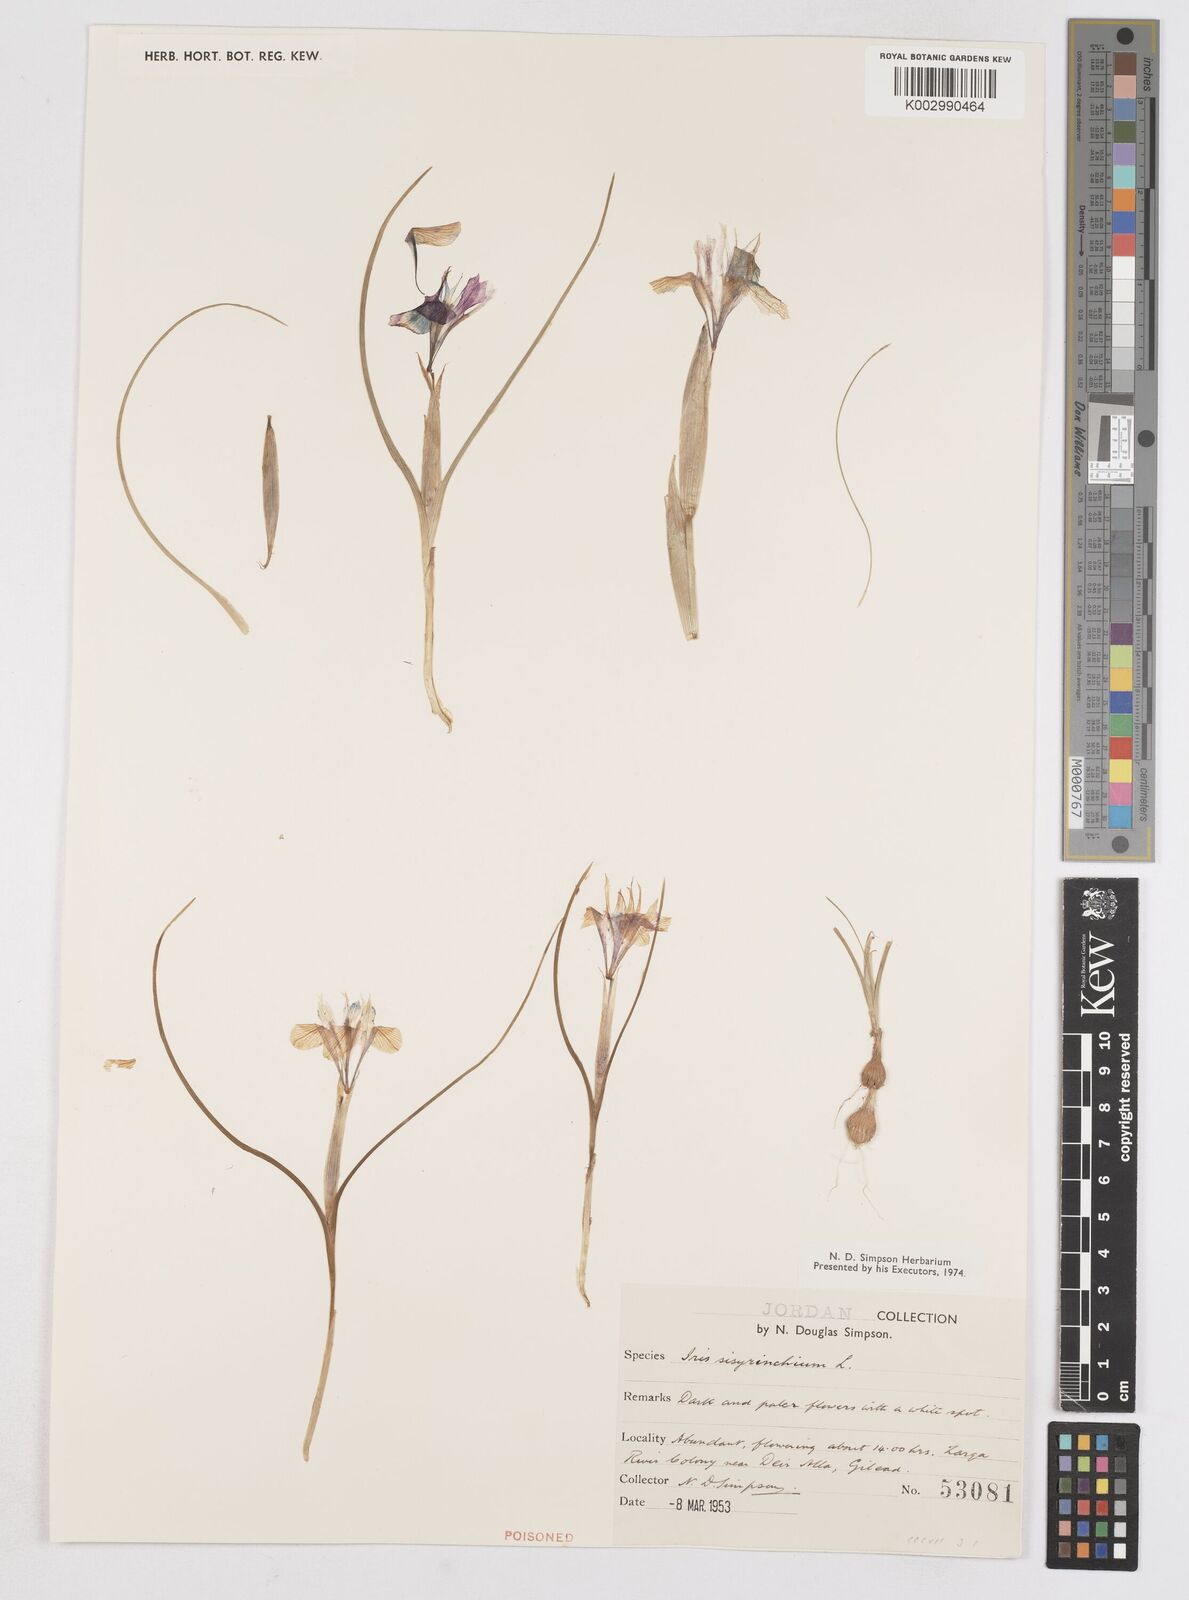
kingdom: Plantae
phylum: Tracheophyta
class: Liliopsida
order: Asparagales
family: Iridaceae
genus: Moraea
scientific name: Moraea sisyrinchium
